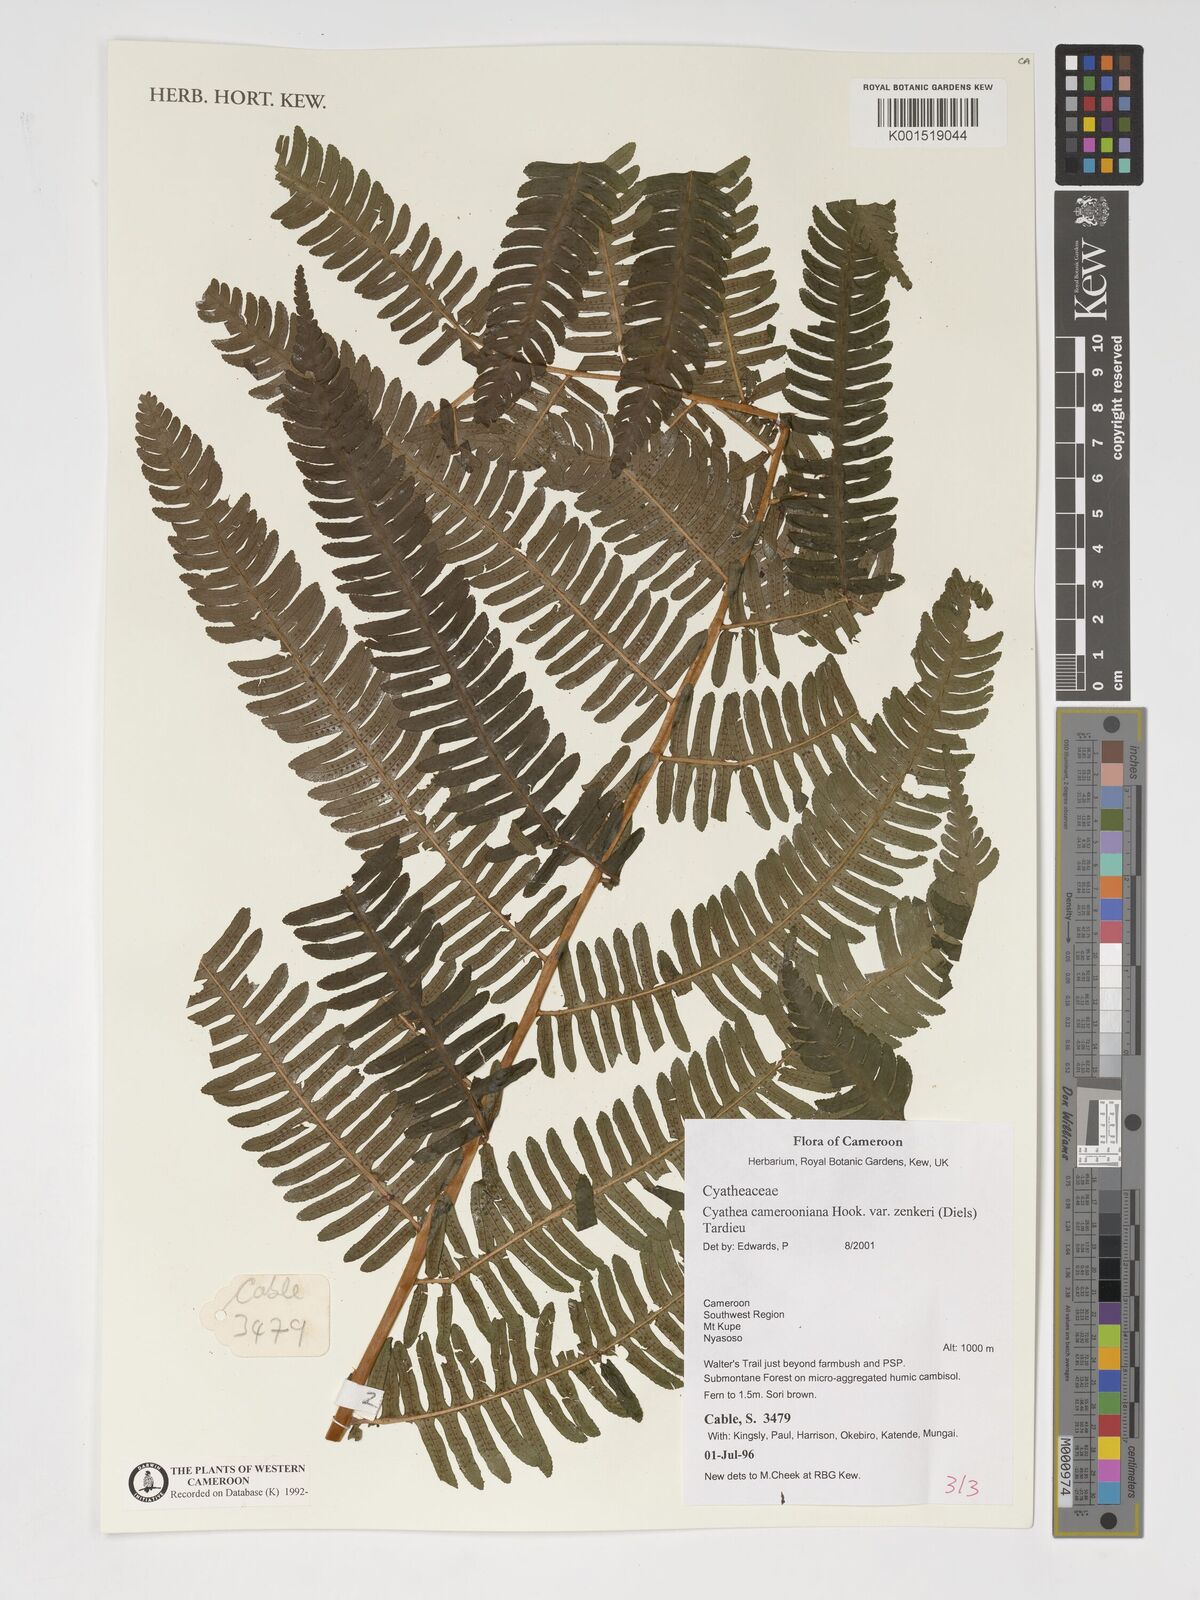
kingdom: Plantae
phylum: Tracheophyta
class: Polypodiopsida
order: Cyatheales
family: Cyatheaceae
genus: Alsophila
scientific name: Alsophila camerooniana
